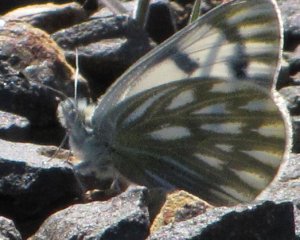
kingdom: Animalia
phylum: Arthropoda
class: Insecta
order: Lepidoptera
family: Pieridae
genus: Pontia
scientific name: Pontia occidentalis
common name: Western White
